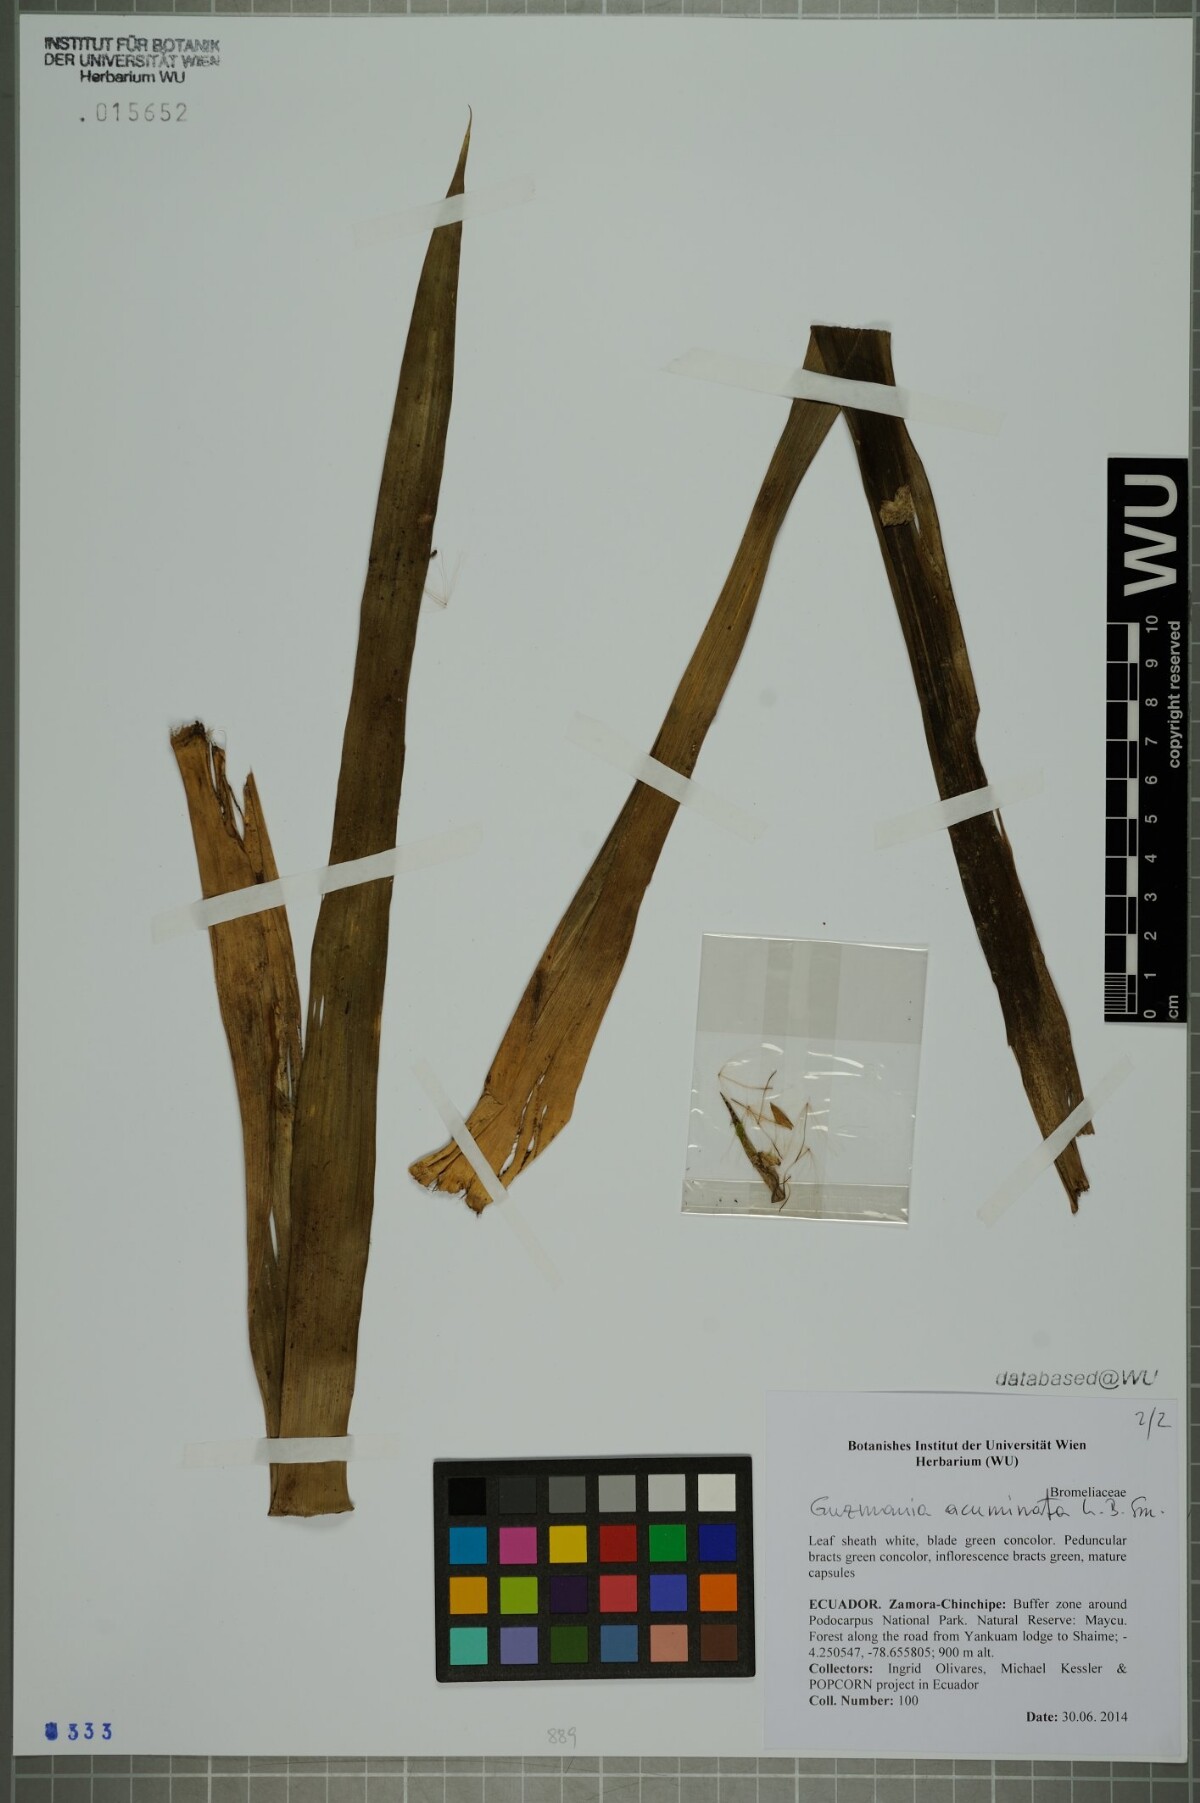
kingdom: Plantae
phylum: Tracheophyta
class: Liliopsida
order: Poales
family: Bromeliaceae
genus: Guzmania
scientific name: Guzmania acuminata
